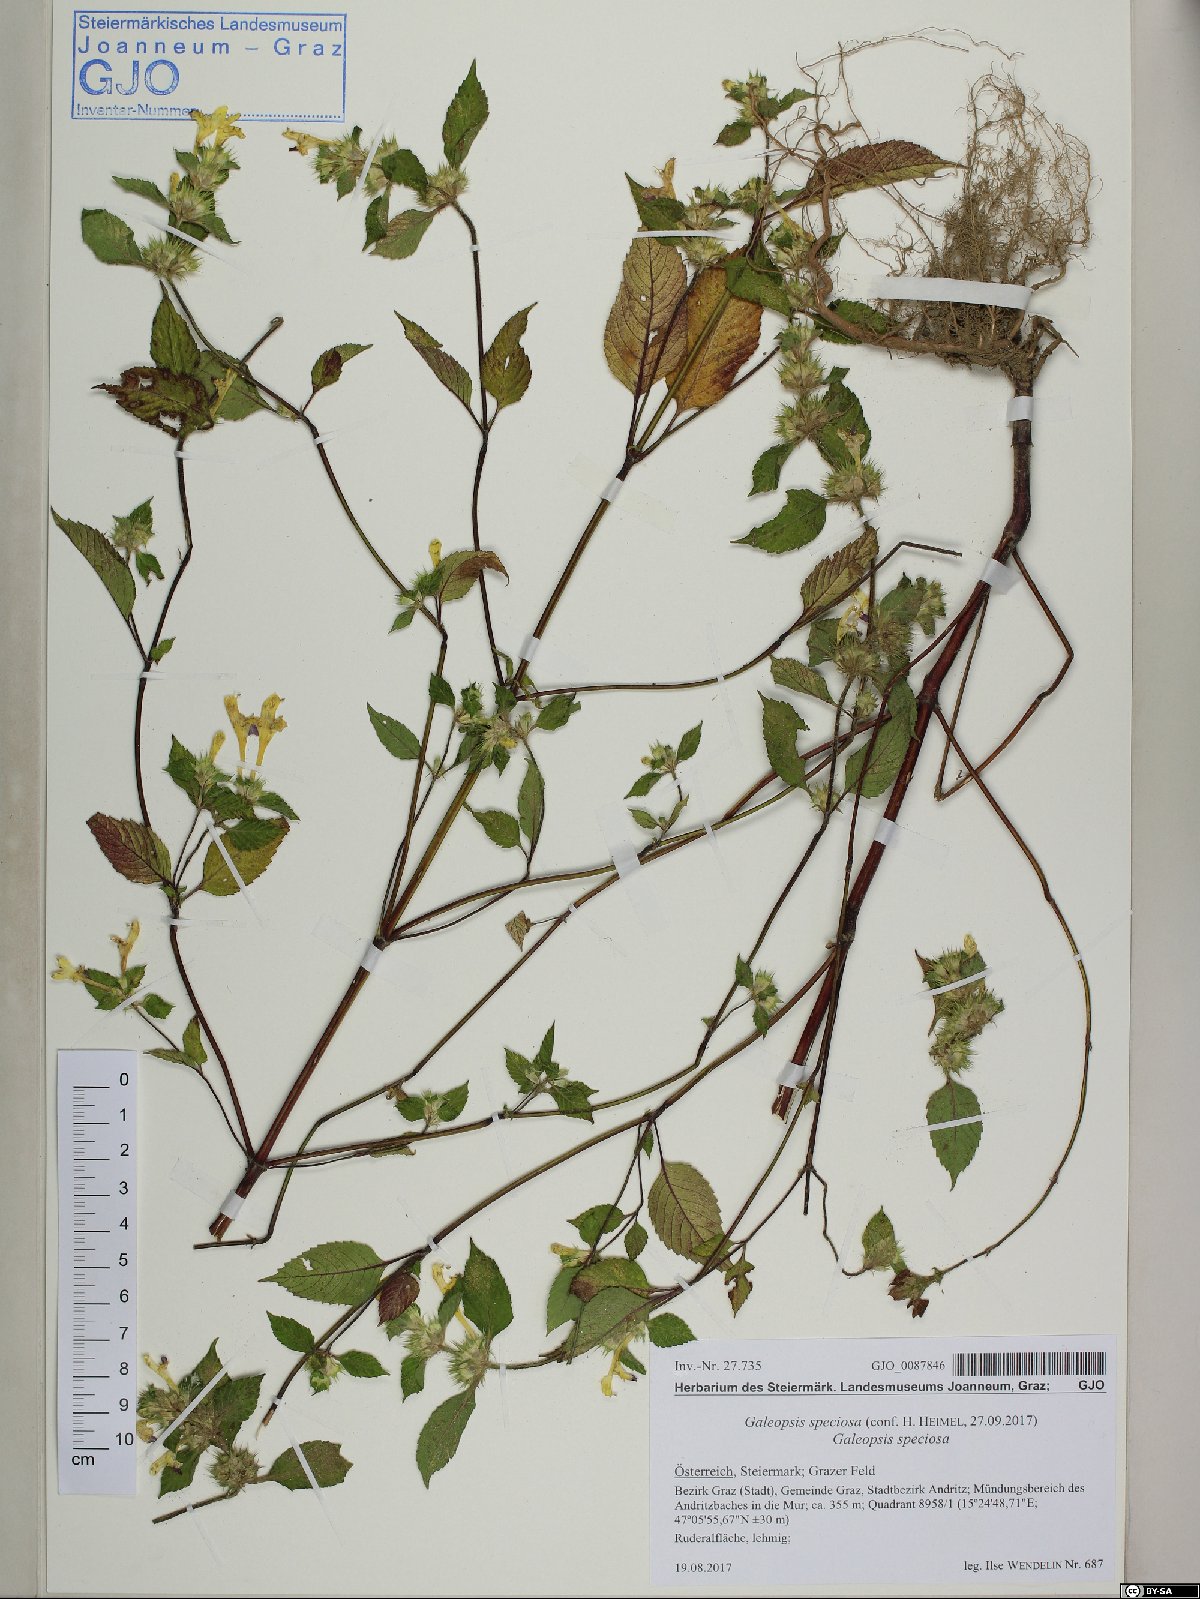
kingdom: Plantae
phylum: Tracheophyta
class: Magnoliopsida
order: Lamiales
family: Lamiaceae
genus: Galeopsis
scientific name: Galeopsis speciosa
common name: Large-flowered hemp-nettle
